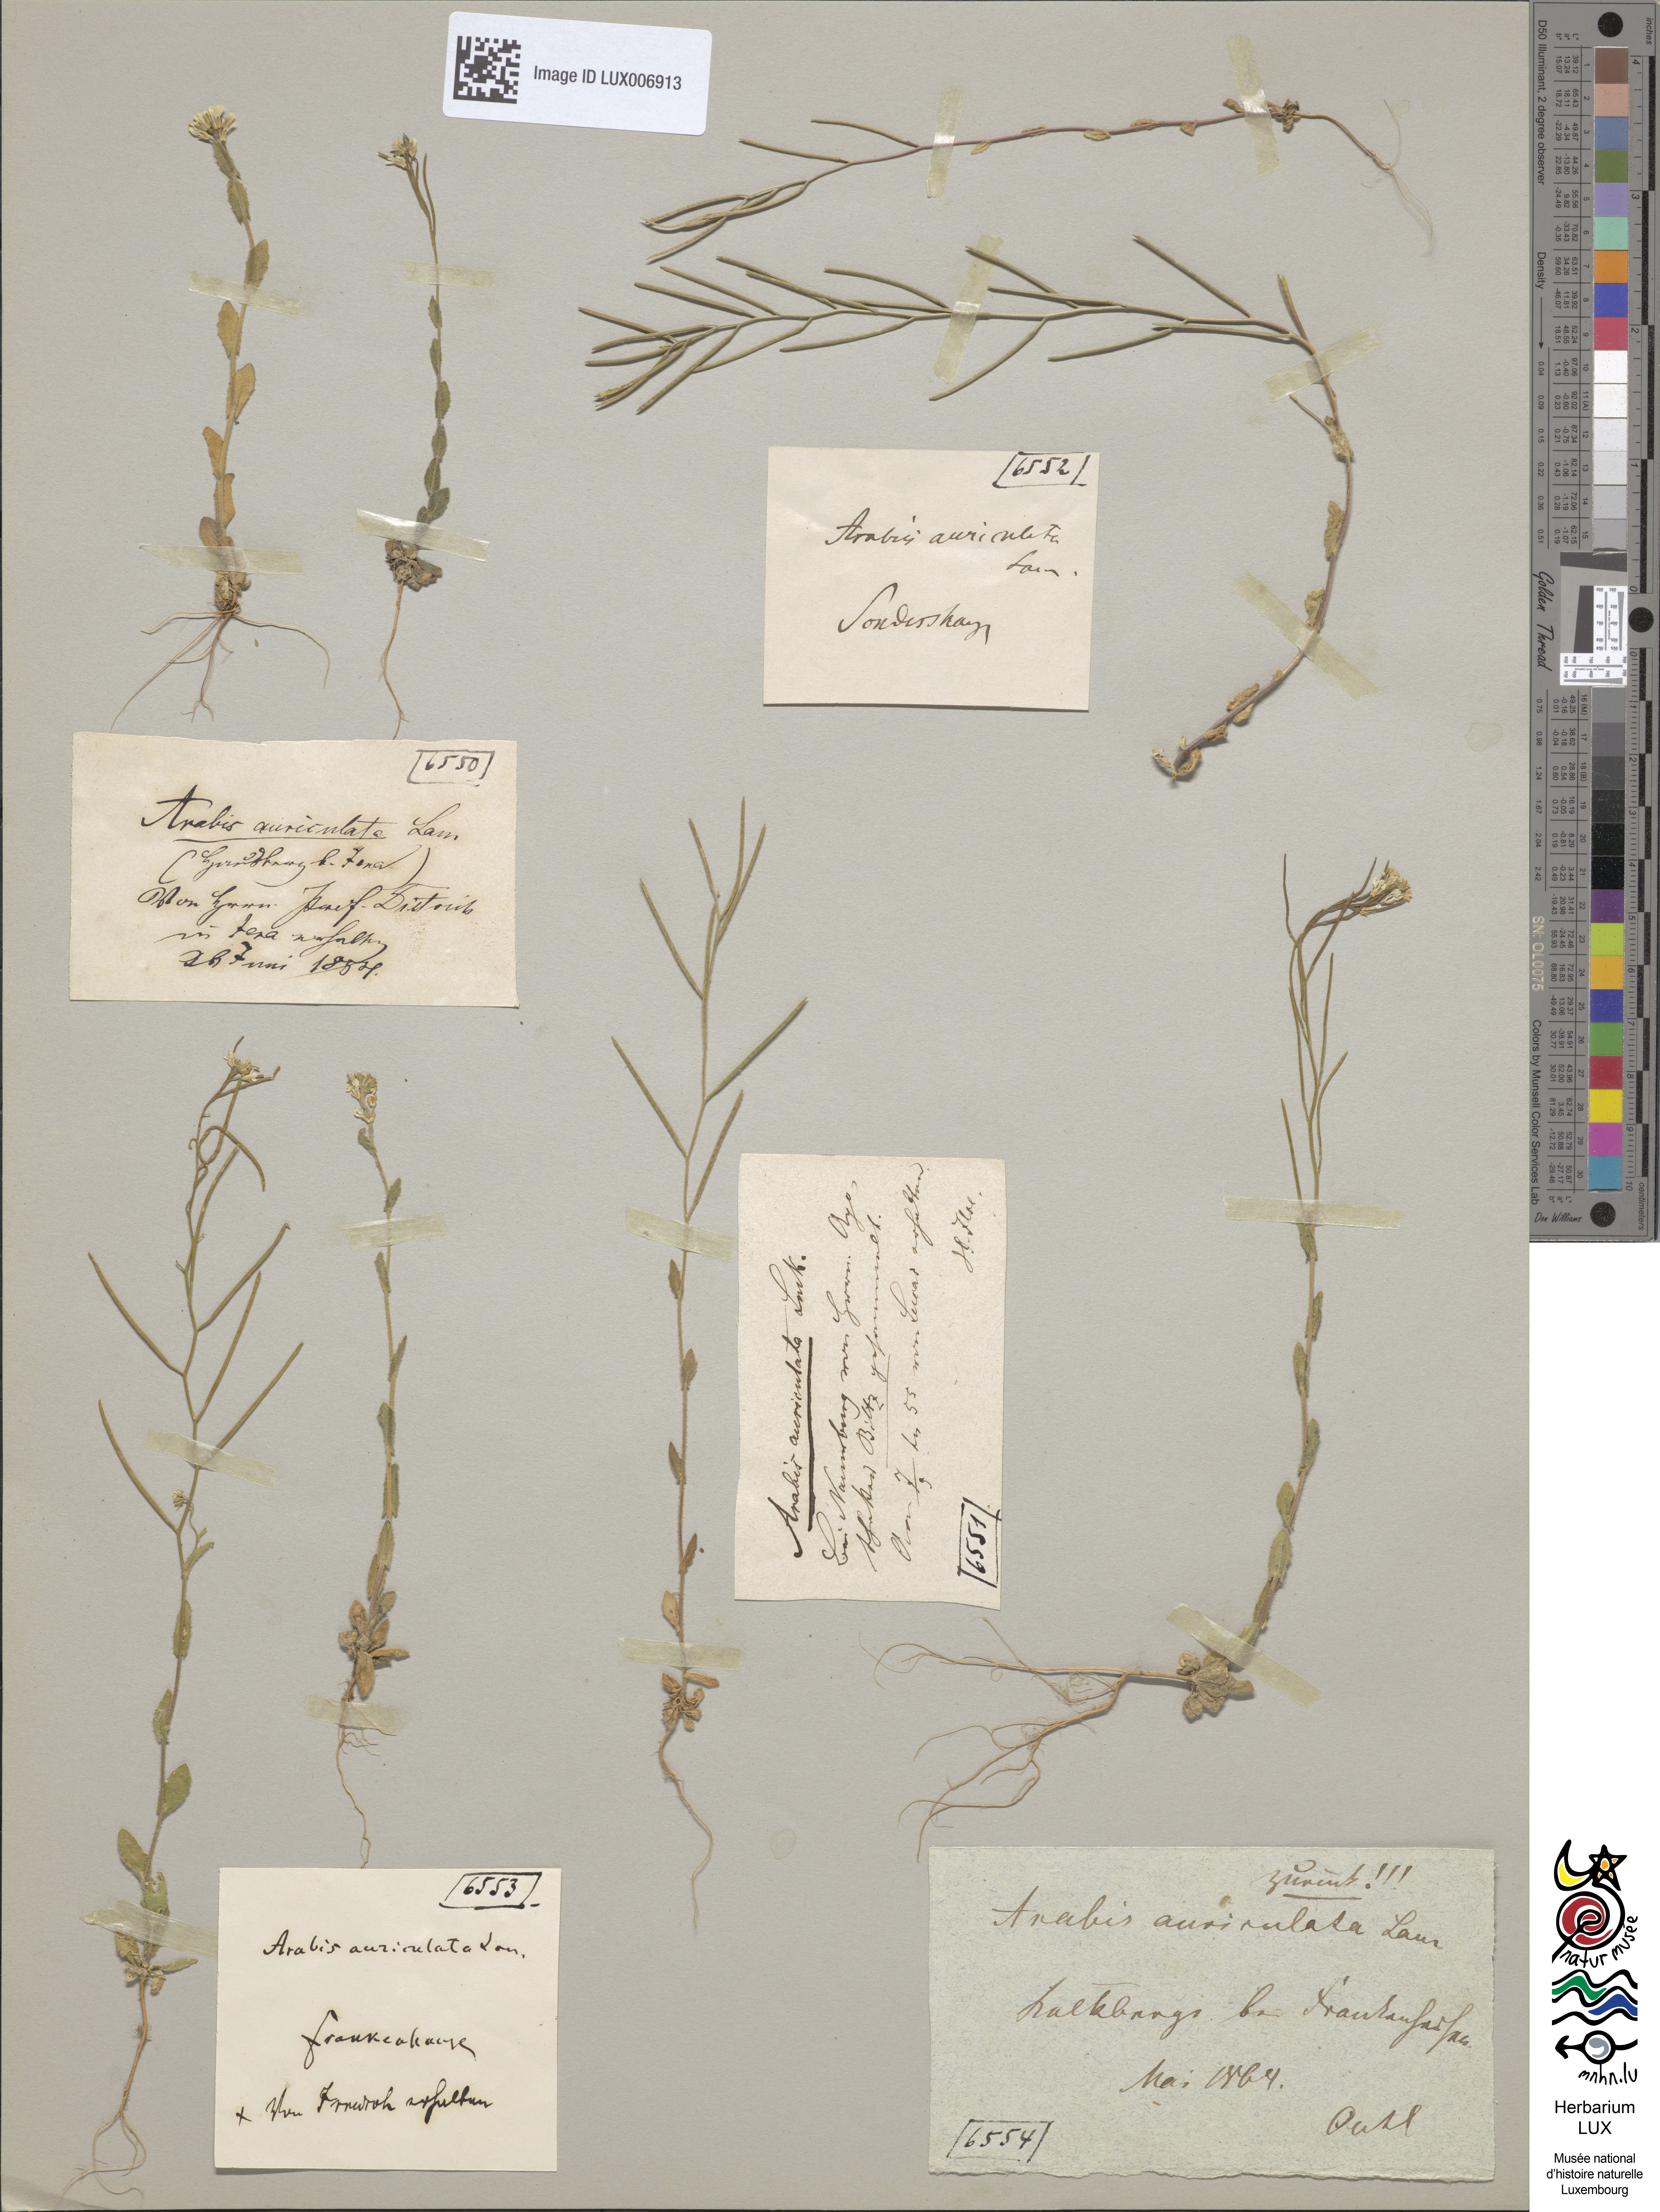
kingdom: Plantae
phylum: Tracheophyta
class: Magnoliopsida
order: Brassicales
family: Brassicaceae
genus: Arabis
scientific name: Arabis auriculata
